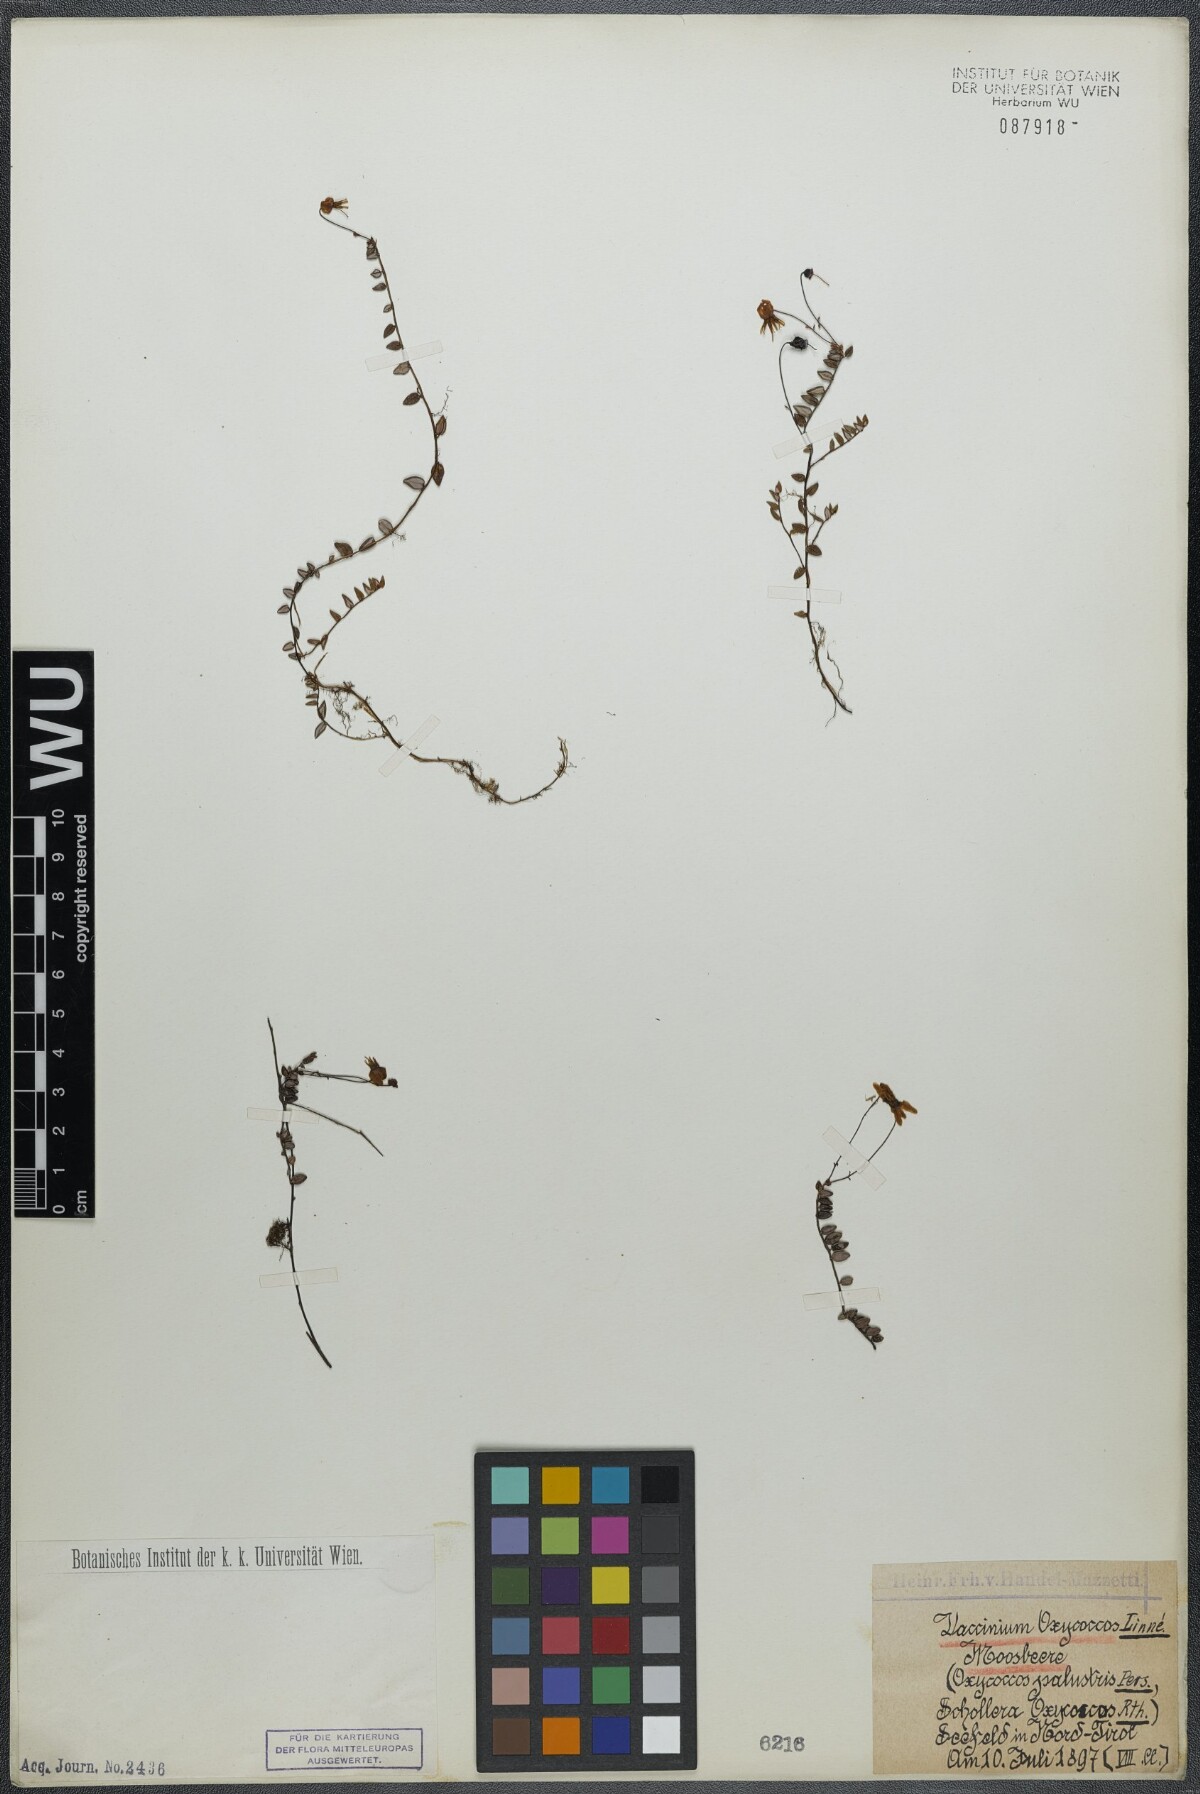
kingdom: Plantae
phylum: Tracheophyta
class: Magnoliopsida
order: Ericales
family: Ericaceae
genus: Vaccinium
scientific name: Vaccinium oxycoccos
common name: Cranberry
